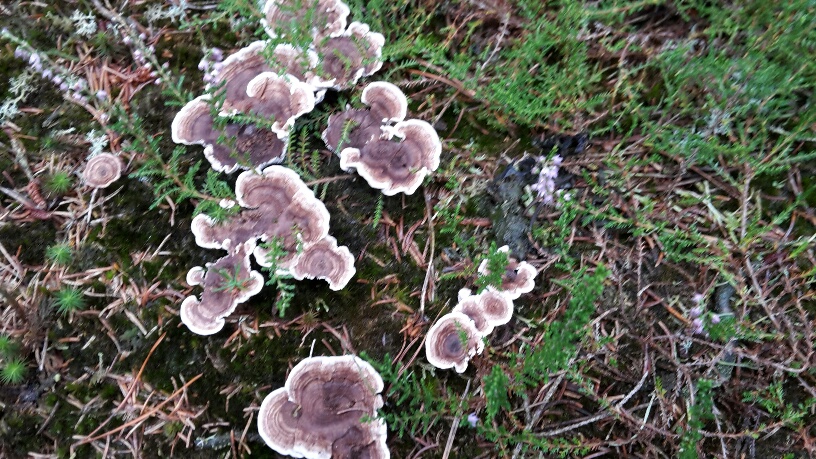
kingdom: Fungi
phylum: Basidiomycota
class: Agaricomycetes
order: Thelephorales
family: Thelephoraceae
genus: Phellodon
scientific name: Phellodon tomentosus
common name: tragtformet duftpigsvamp
